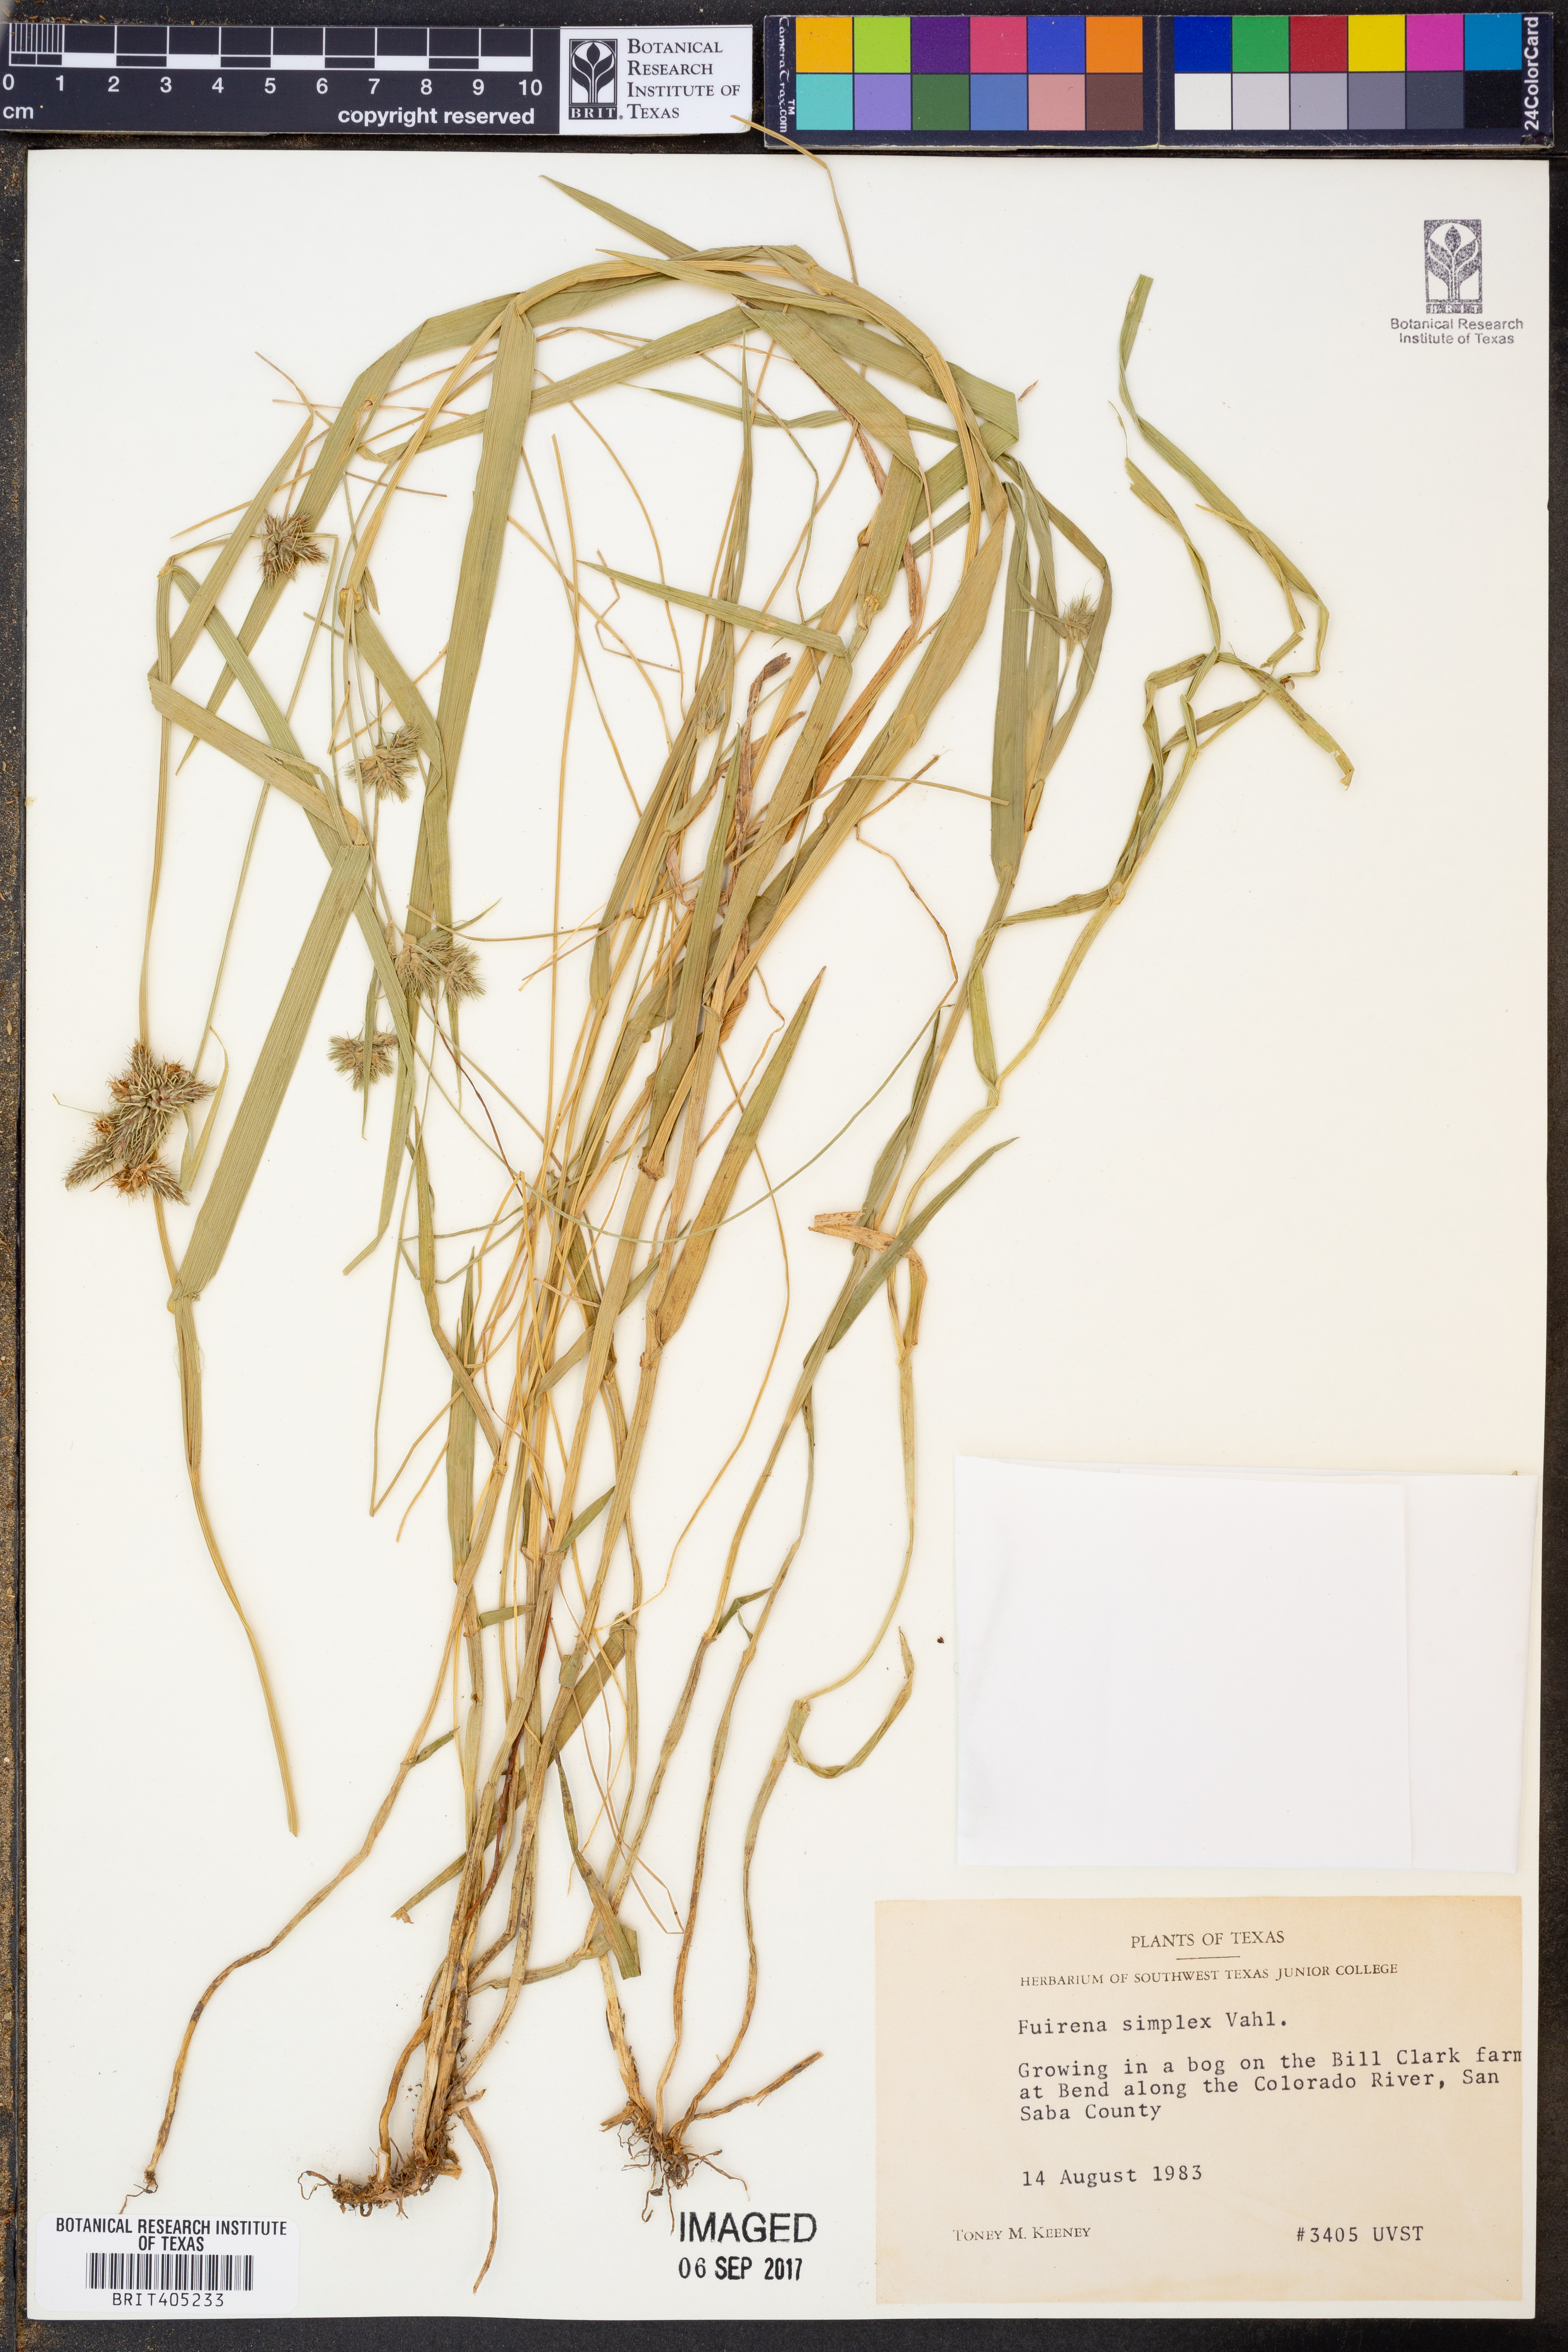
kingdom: Plantae
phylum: Tracheophyta
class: Liliopsida
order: Poales
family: Cyperaceae
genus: Fuirena
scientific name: Fuirena simplex
